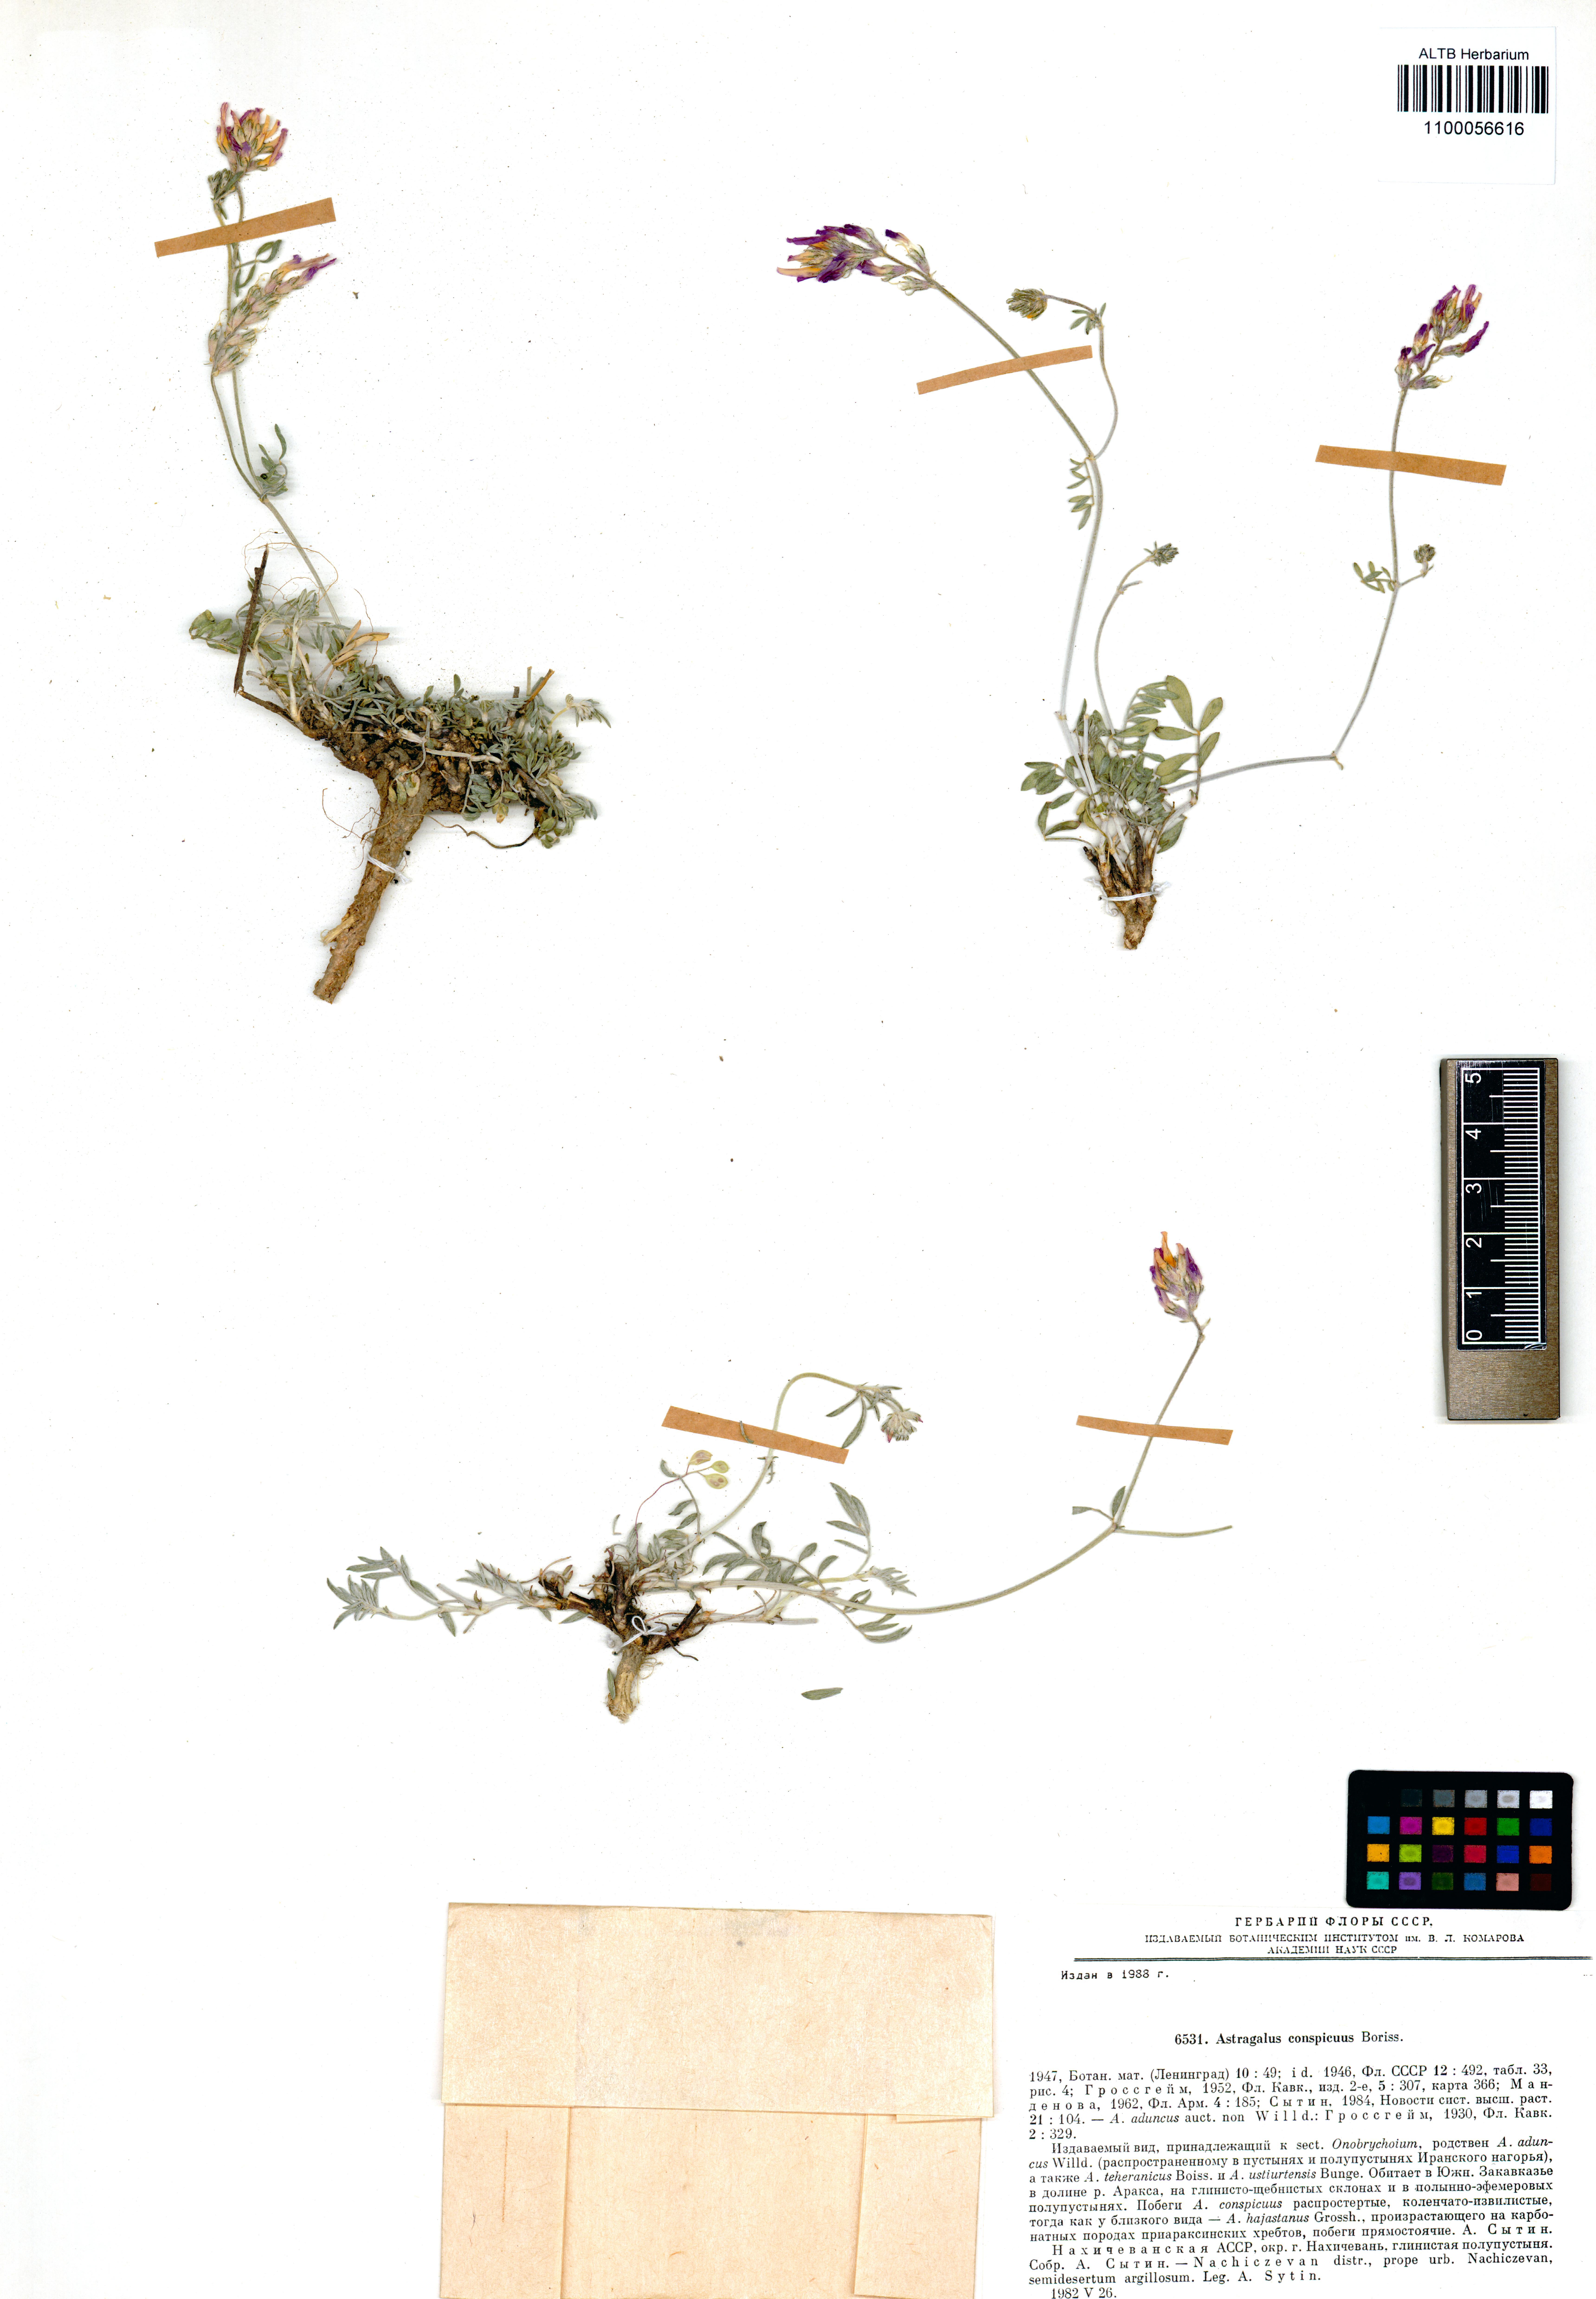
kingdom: Plantae
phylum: Tracheophyta
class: Magnoliopsida
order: Fabales
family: Fabaceae
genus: Astragalus
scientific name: Astragalus brevipes
